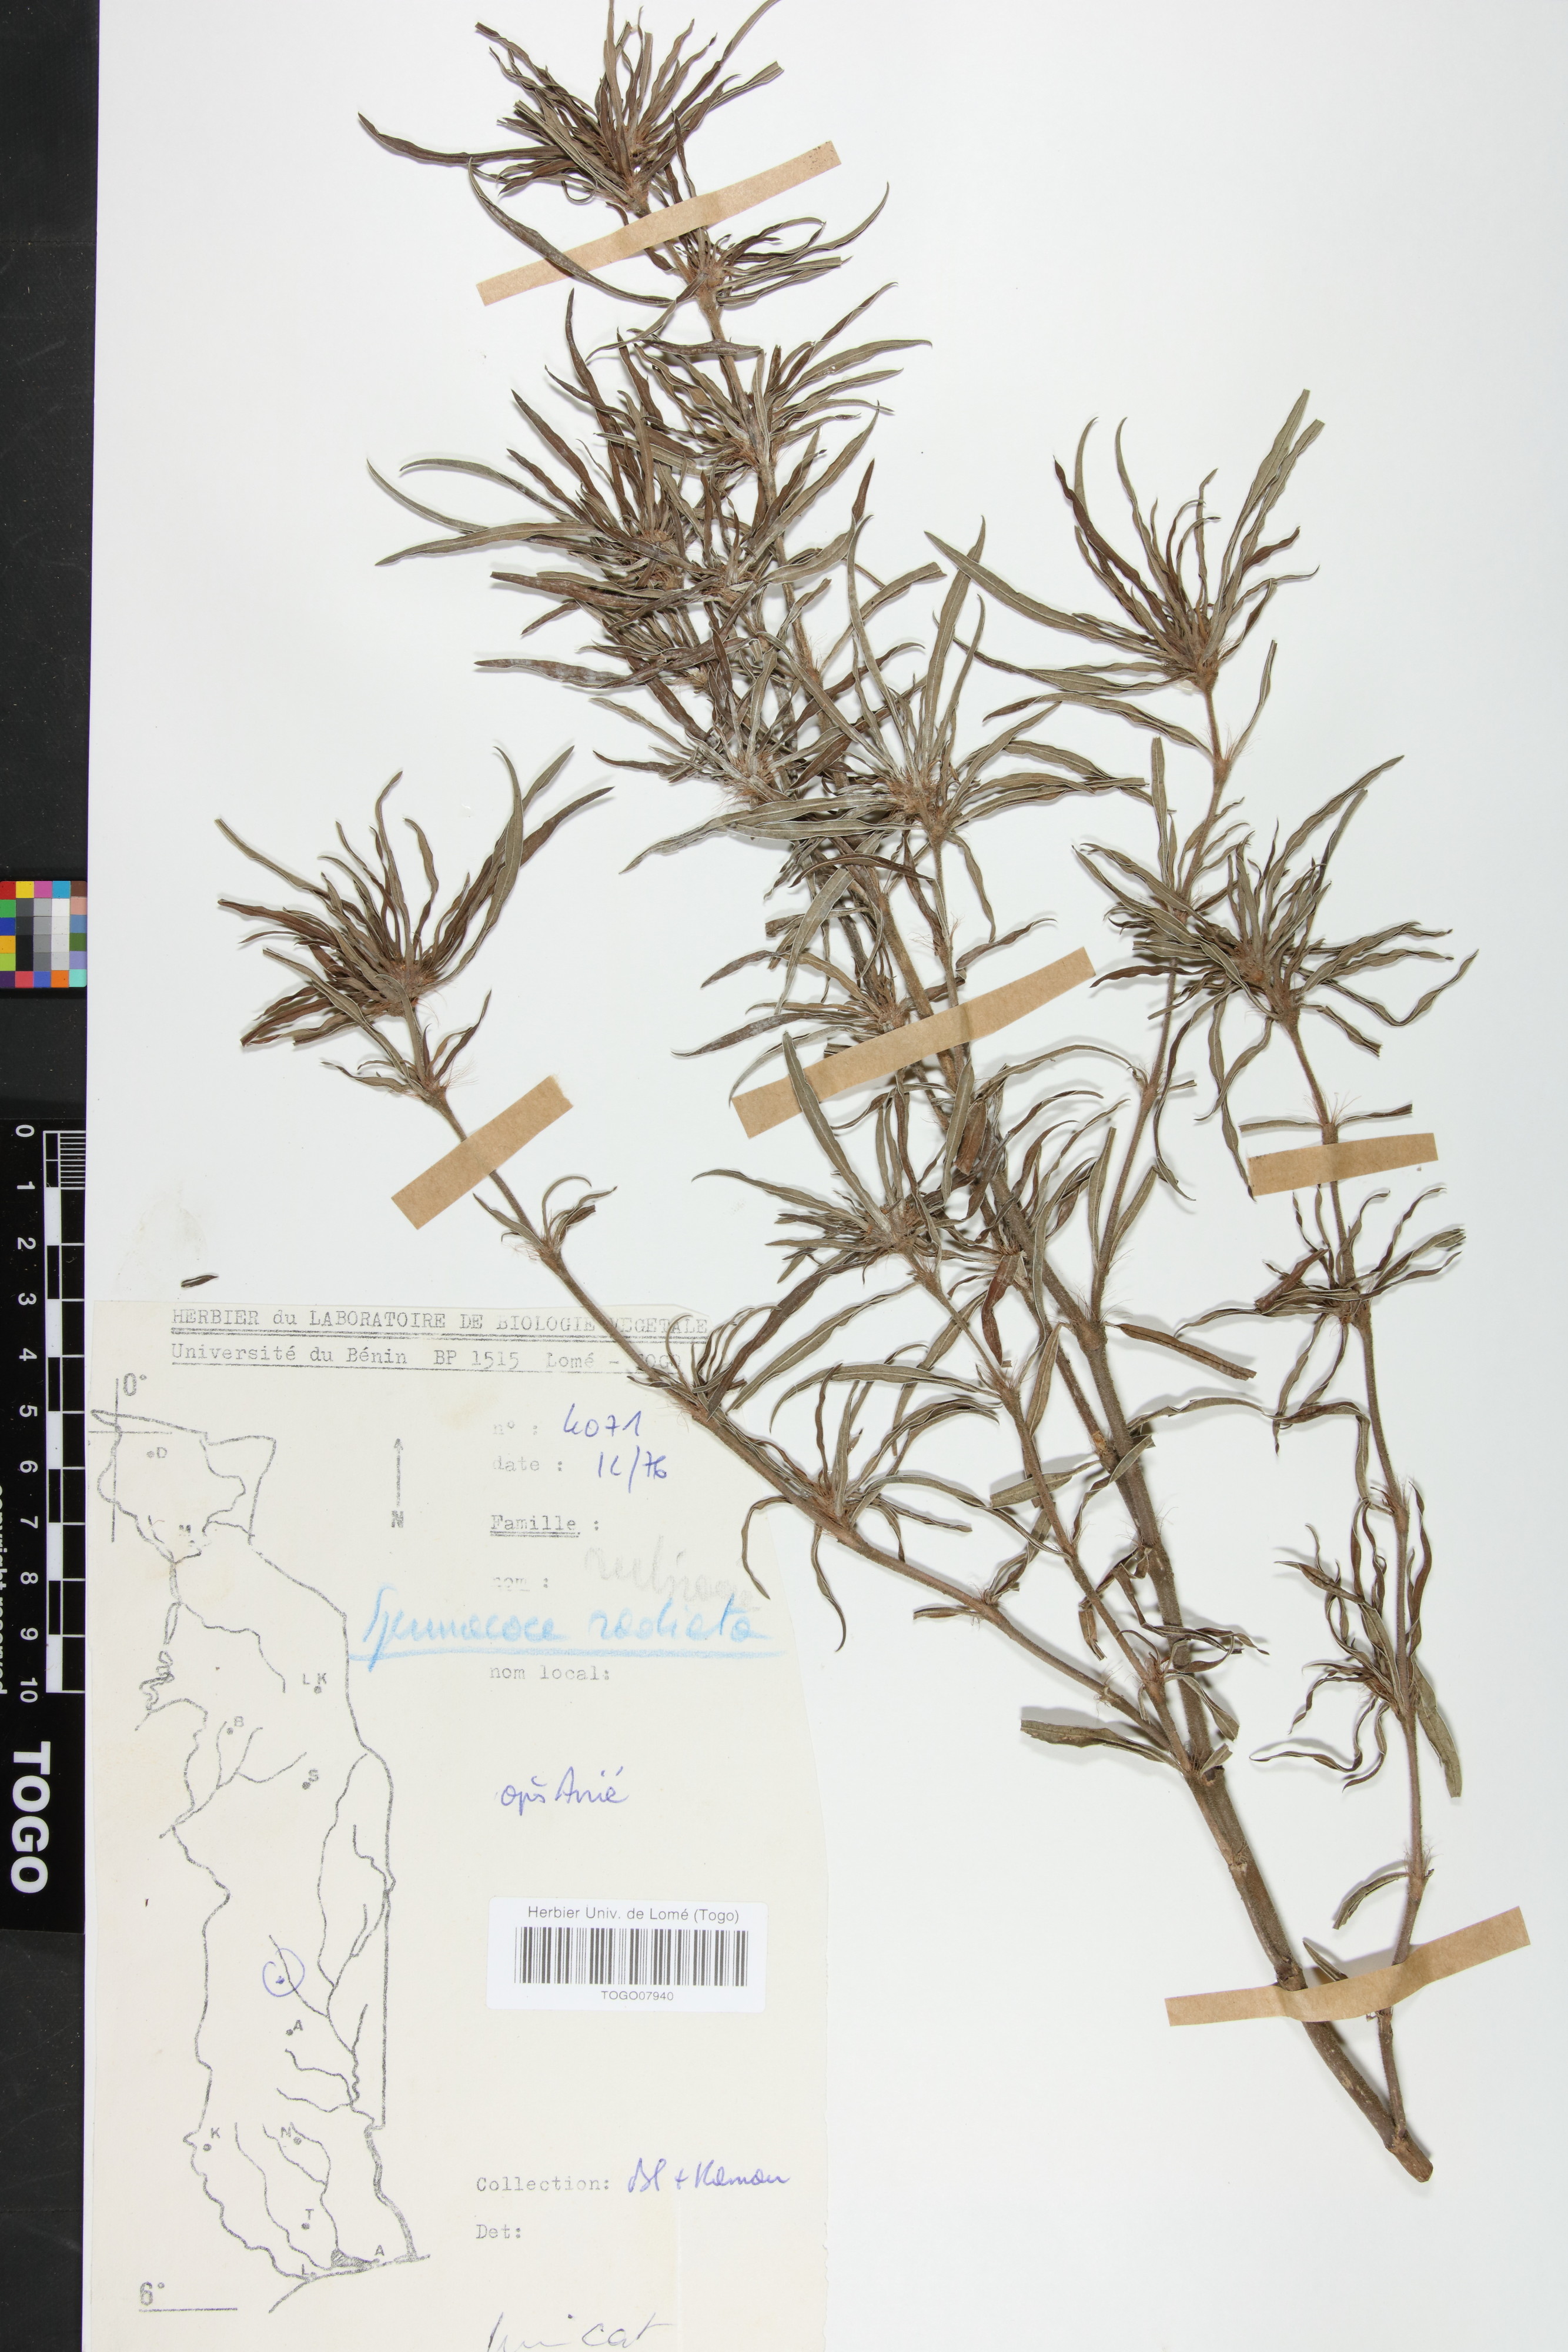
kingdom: Plantae
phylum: Tracheophyta
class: Magnoliopsida
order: Gentianales
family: Rubiaceae
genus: Spermacoce
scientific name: Spermacoce radiata
